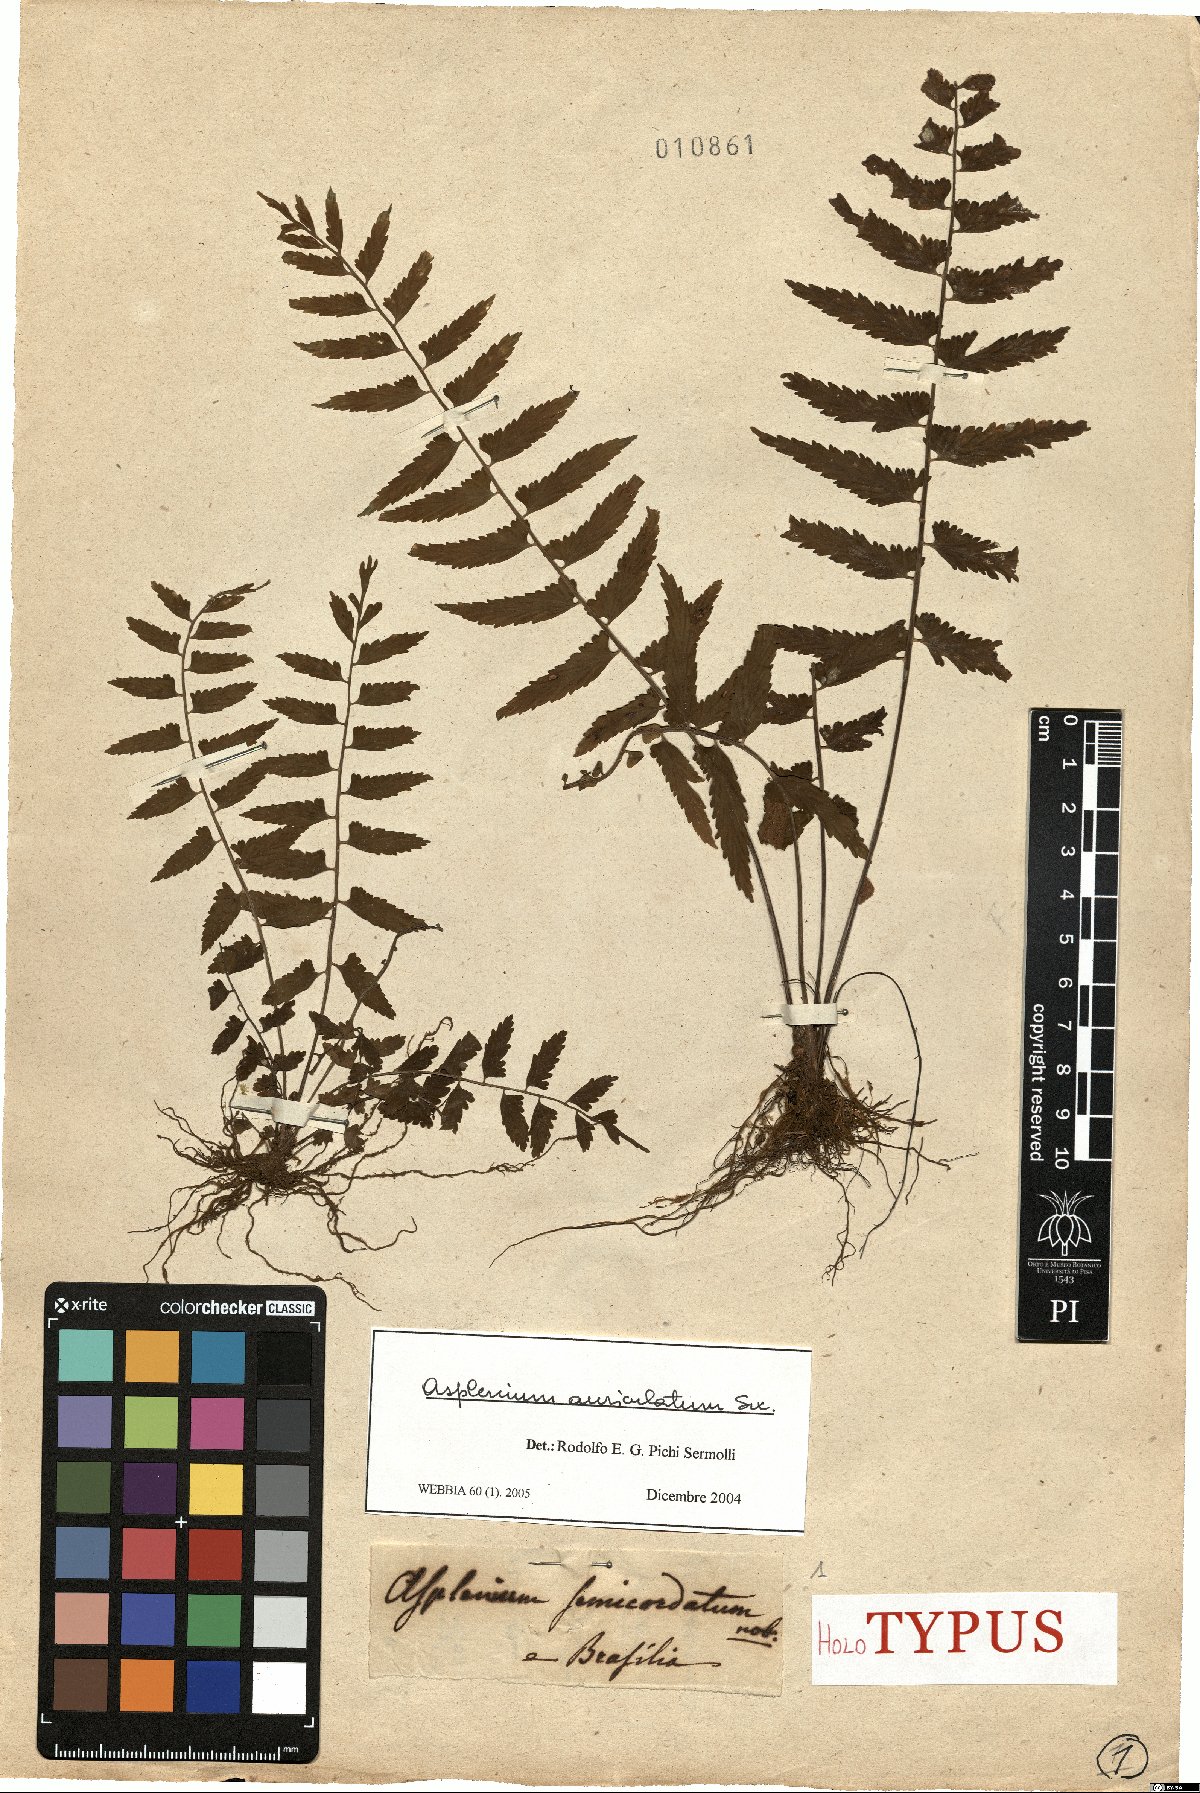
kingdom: Plantae
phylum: Tracheophyta
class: Polypodiopsida
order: Polypodiales
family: Aspleniaceae
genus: Asplenium
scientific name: Asplenium auriculatum
